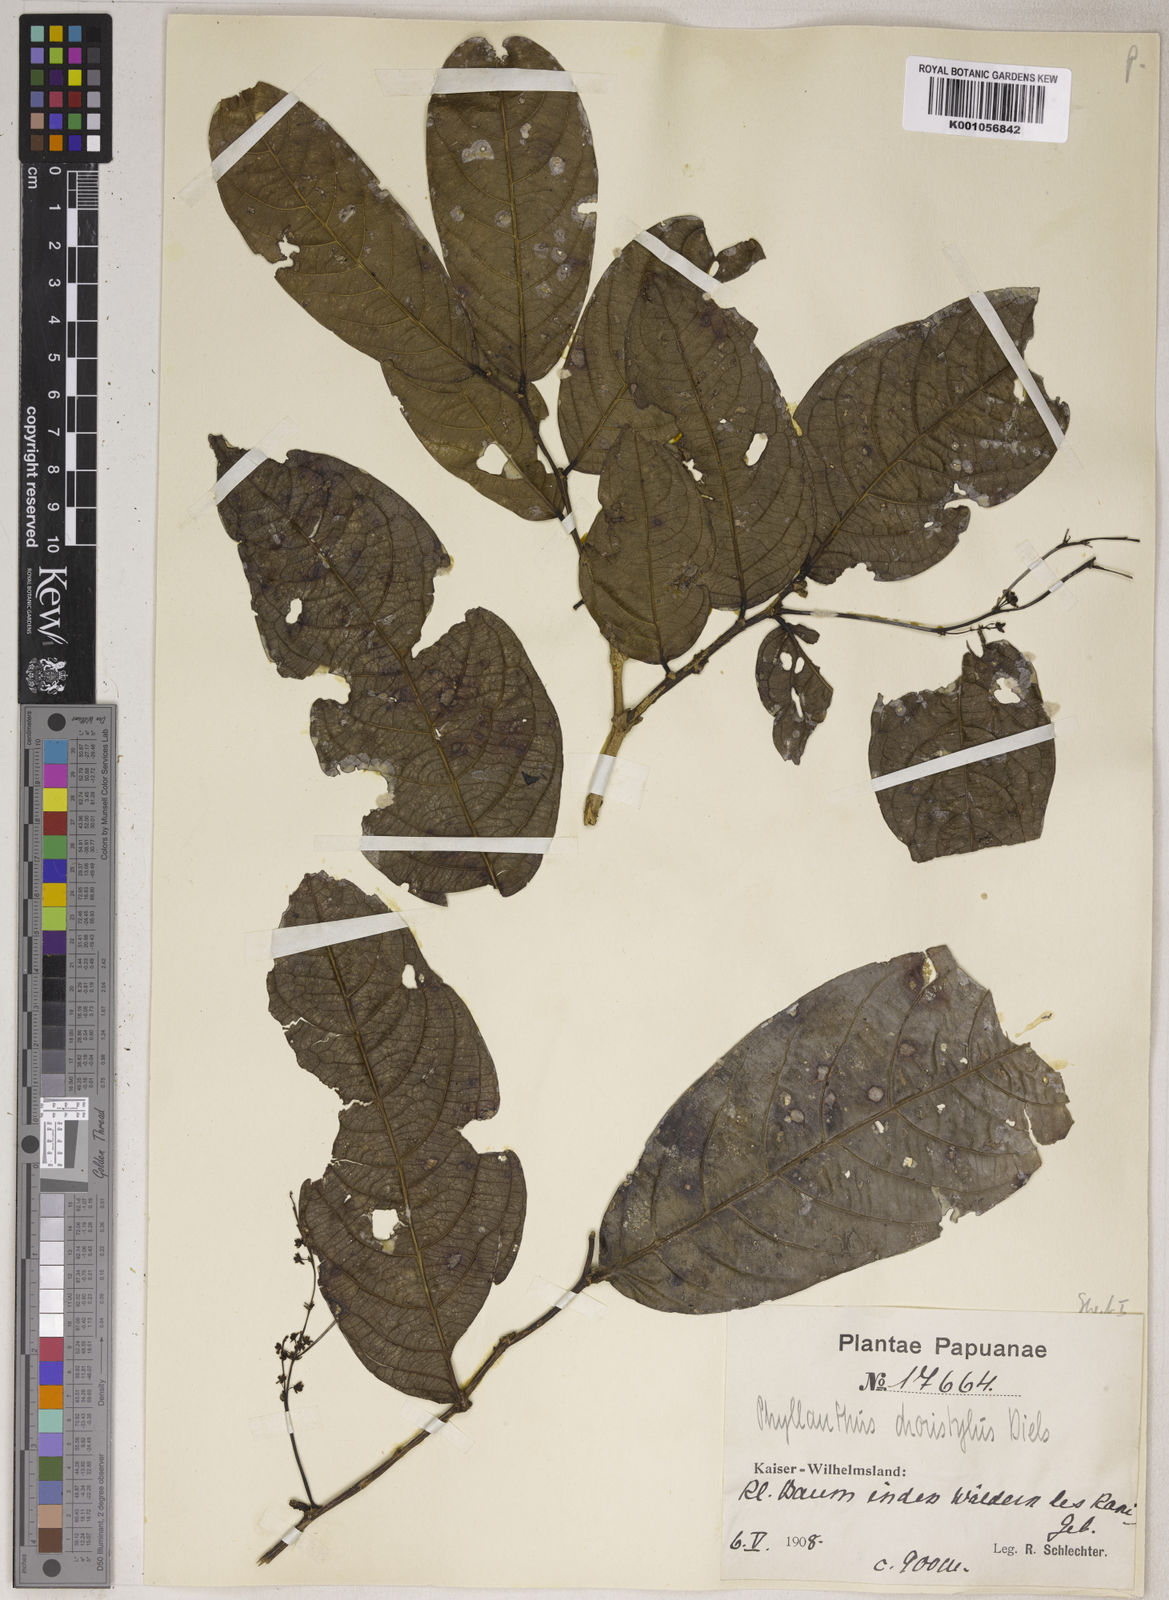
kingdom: Plantae
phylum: Tracheophyta
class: Magnoliopsida
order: Malpighiales
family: Phyllanthaceae
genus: Phyllanthus
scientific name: Phyllanthus clamboides
